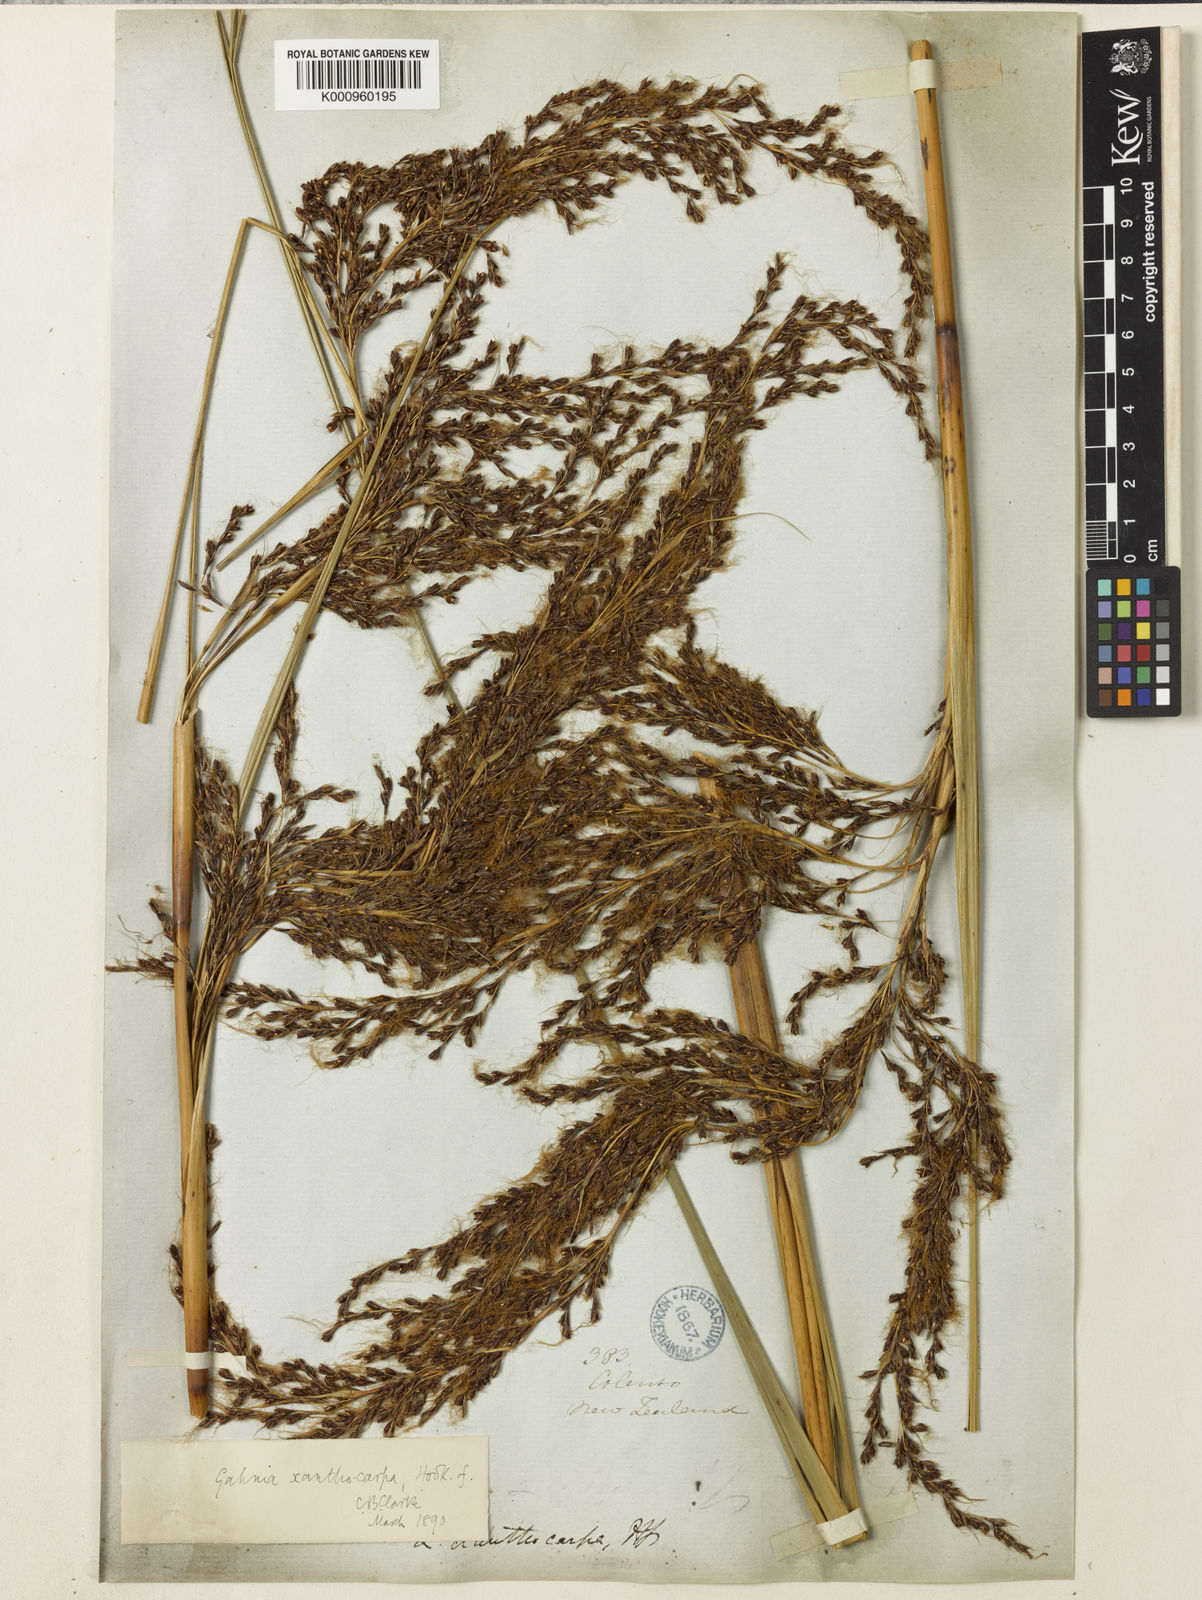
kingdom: Plantae
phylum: Tracheophyta
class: Liliopsida
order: Poales
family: Cyperaceae
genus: Gahnia
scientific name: Gahnia xanthocarpa
